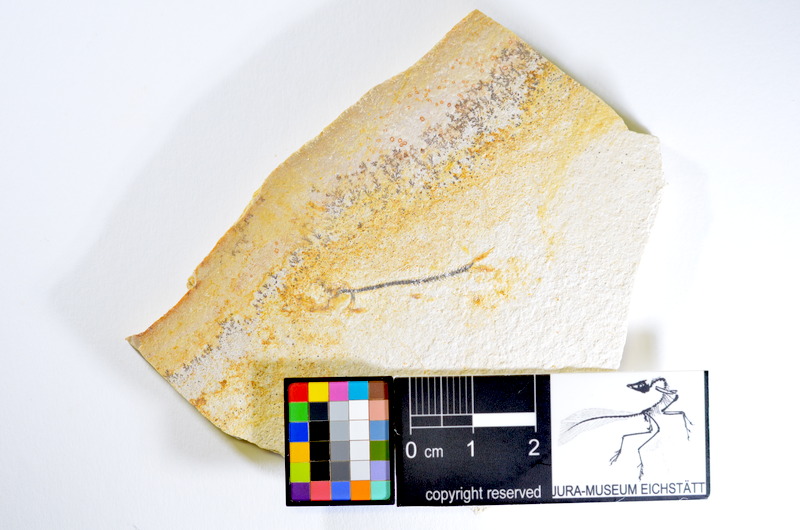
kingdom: Animalia
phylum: Chordata
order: Salmoniformes
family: Orthogonikleithridae
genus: Orthogonikleithrus
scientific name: Orthogonikleithrus hoelli
